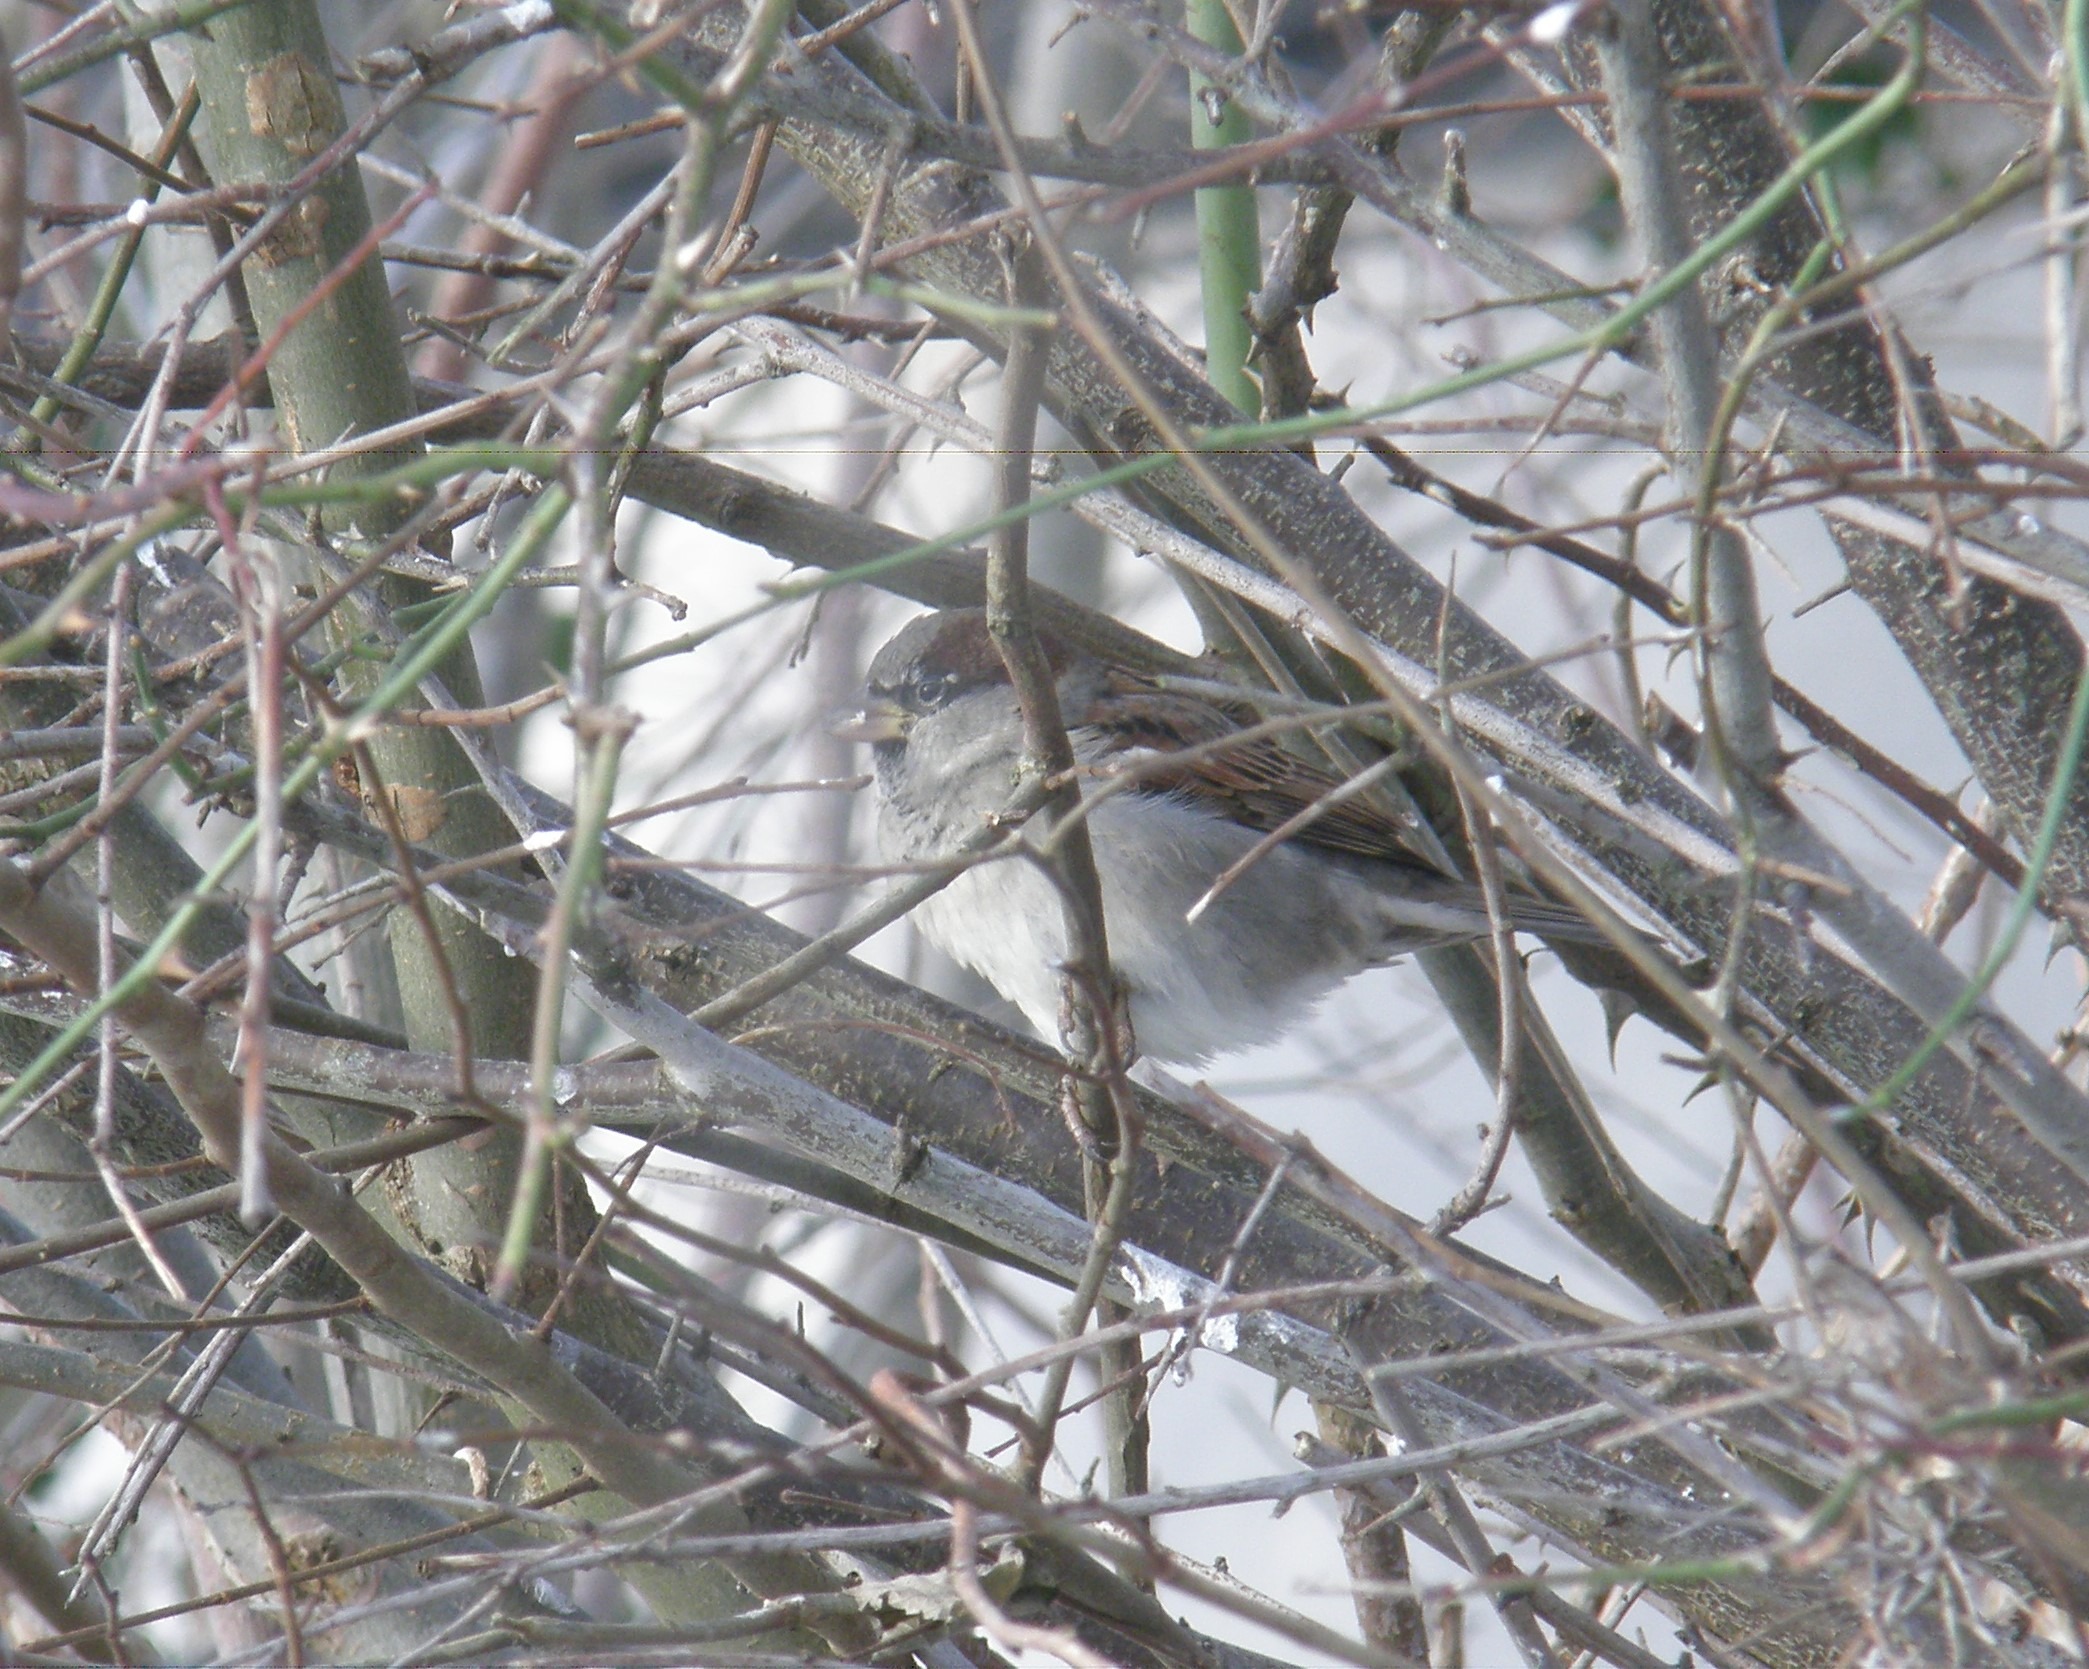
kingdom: Animalia
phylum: Chordata
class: Aves
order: Passeriformes
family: Passeridae
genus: Passer
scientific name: Passer domesticus
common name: Gråspurv
